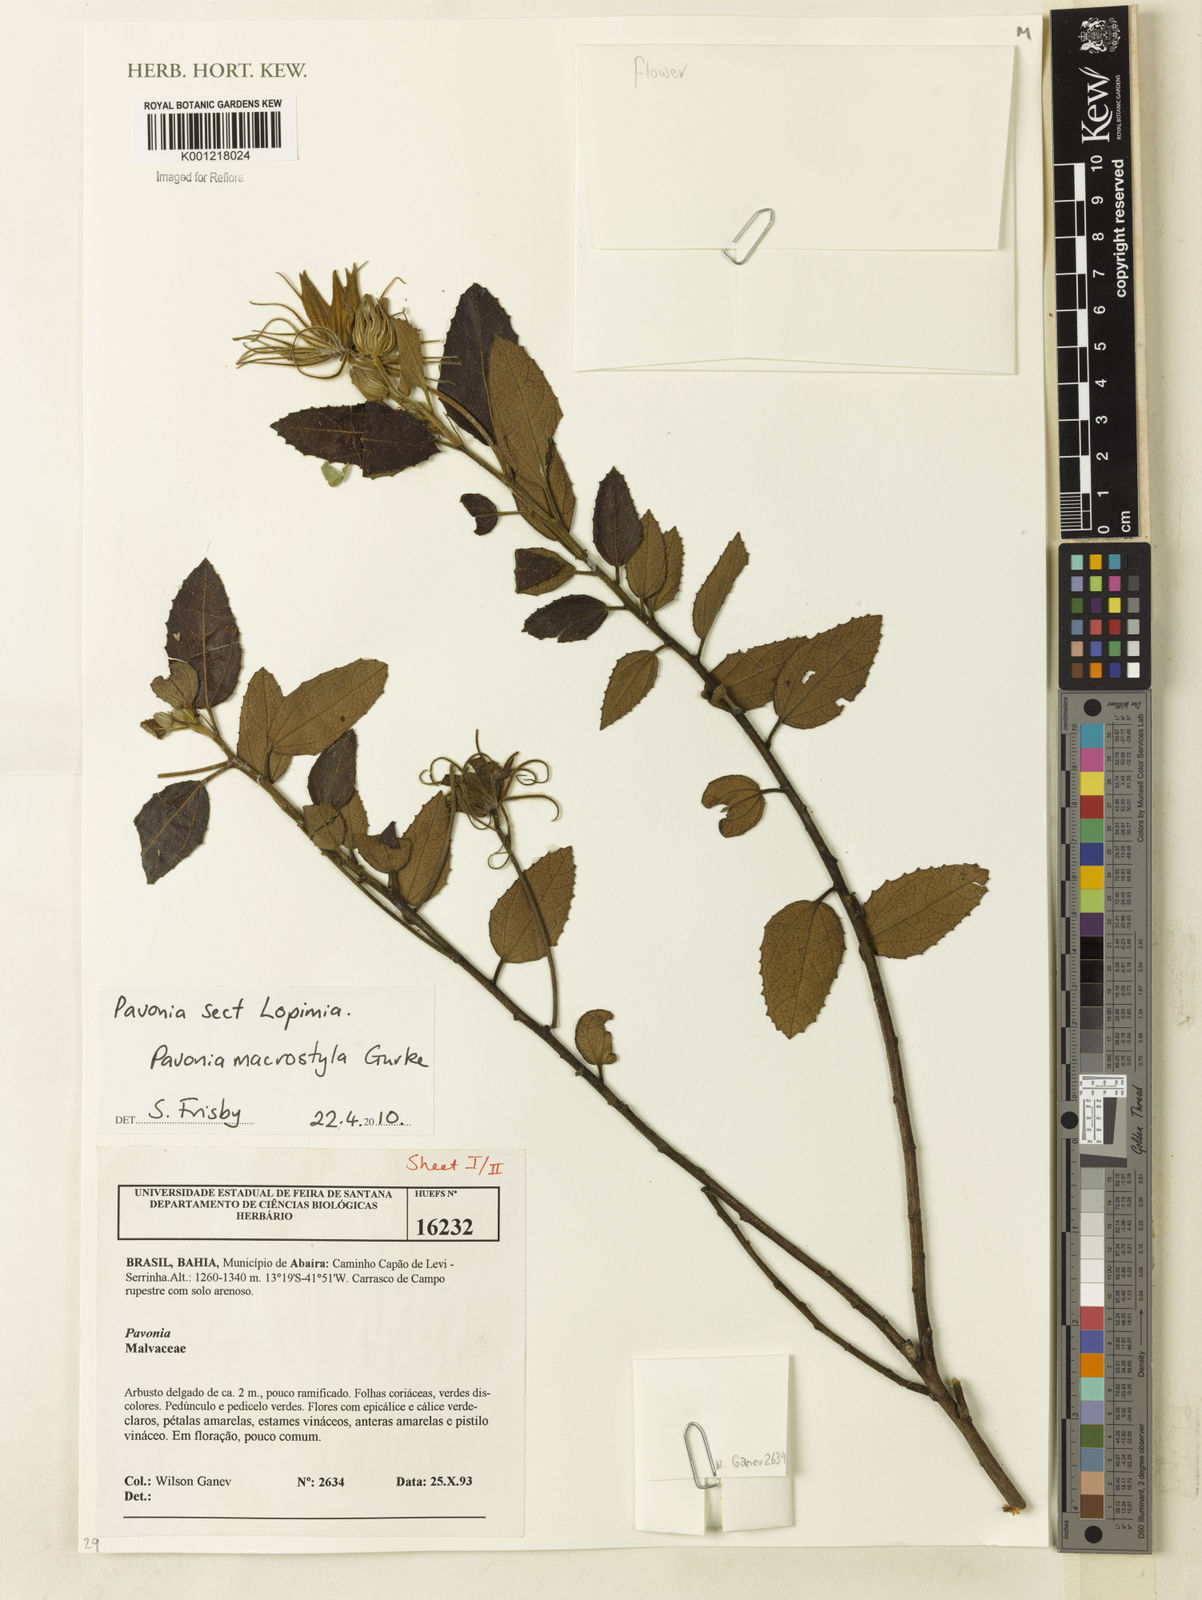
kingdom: Plantae
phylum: Tracheophyta
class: Magnoliopsida
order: Malvales
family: Malvaceae
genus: Pavonia
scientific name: Pavonia
